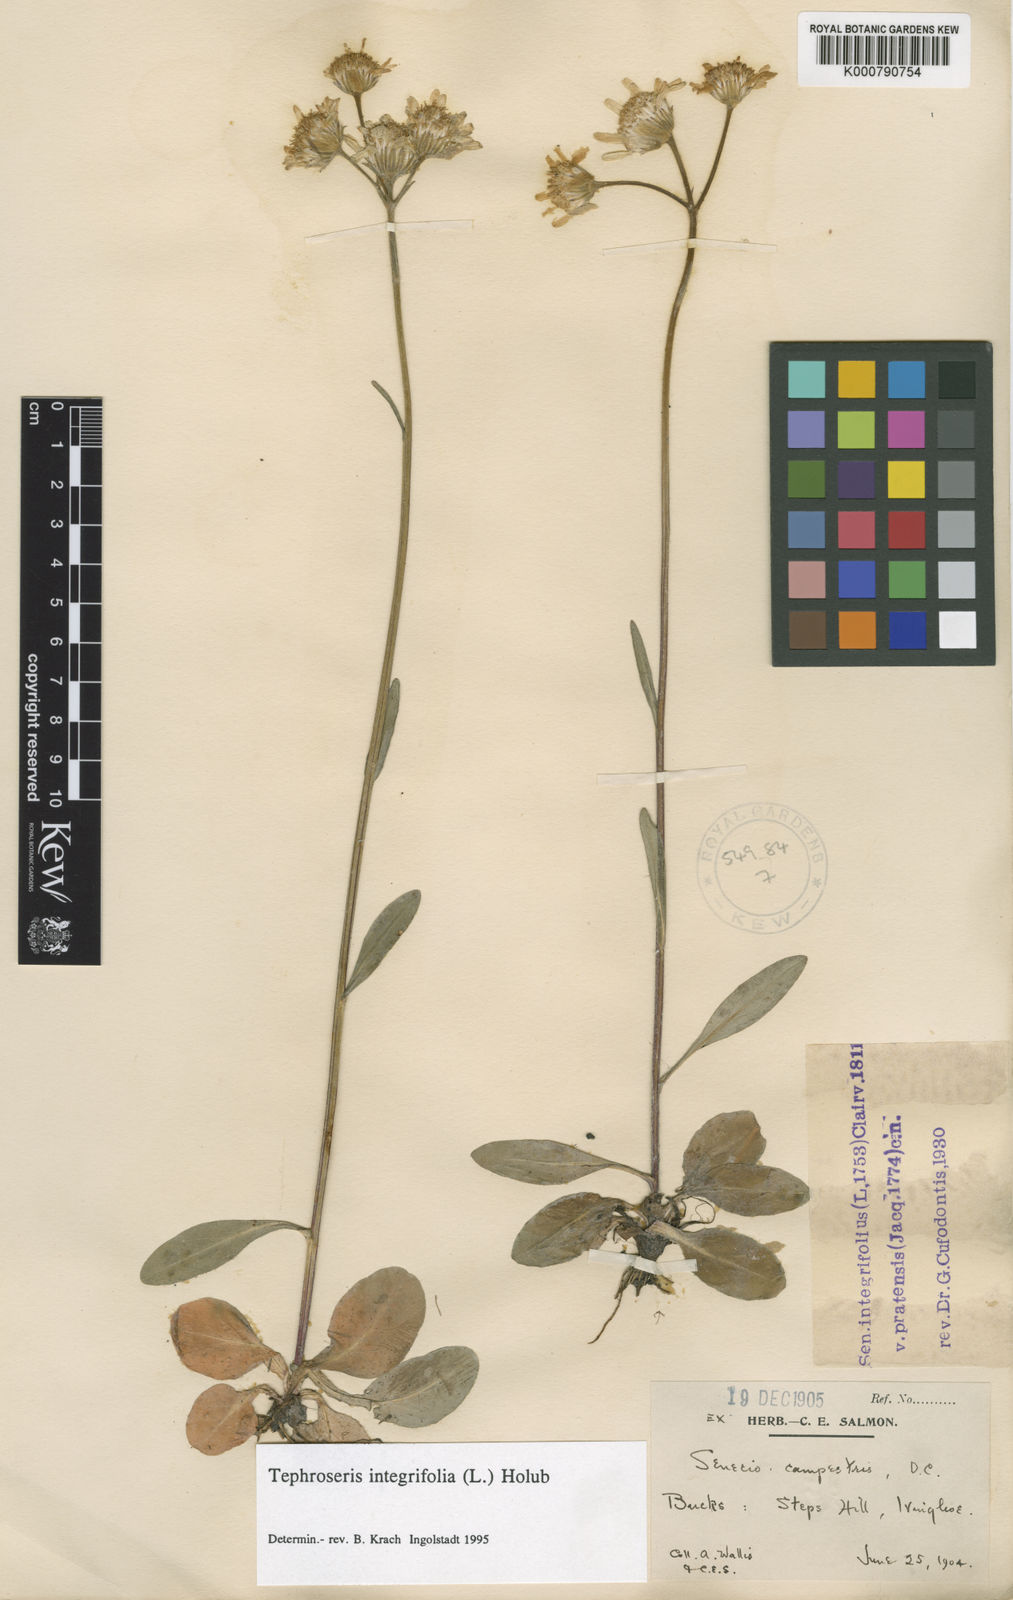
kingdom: Plantae
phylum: Tracheophyta
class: Magnoliopsida
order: Asterales
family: Asteraceae
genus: Tephroseris
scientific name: Tephroseris integrifolia
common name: Field fleawort
